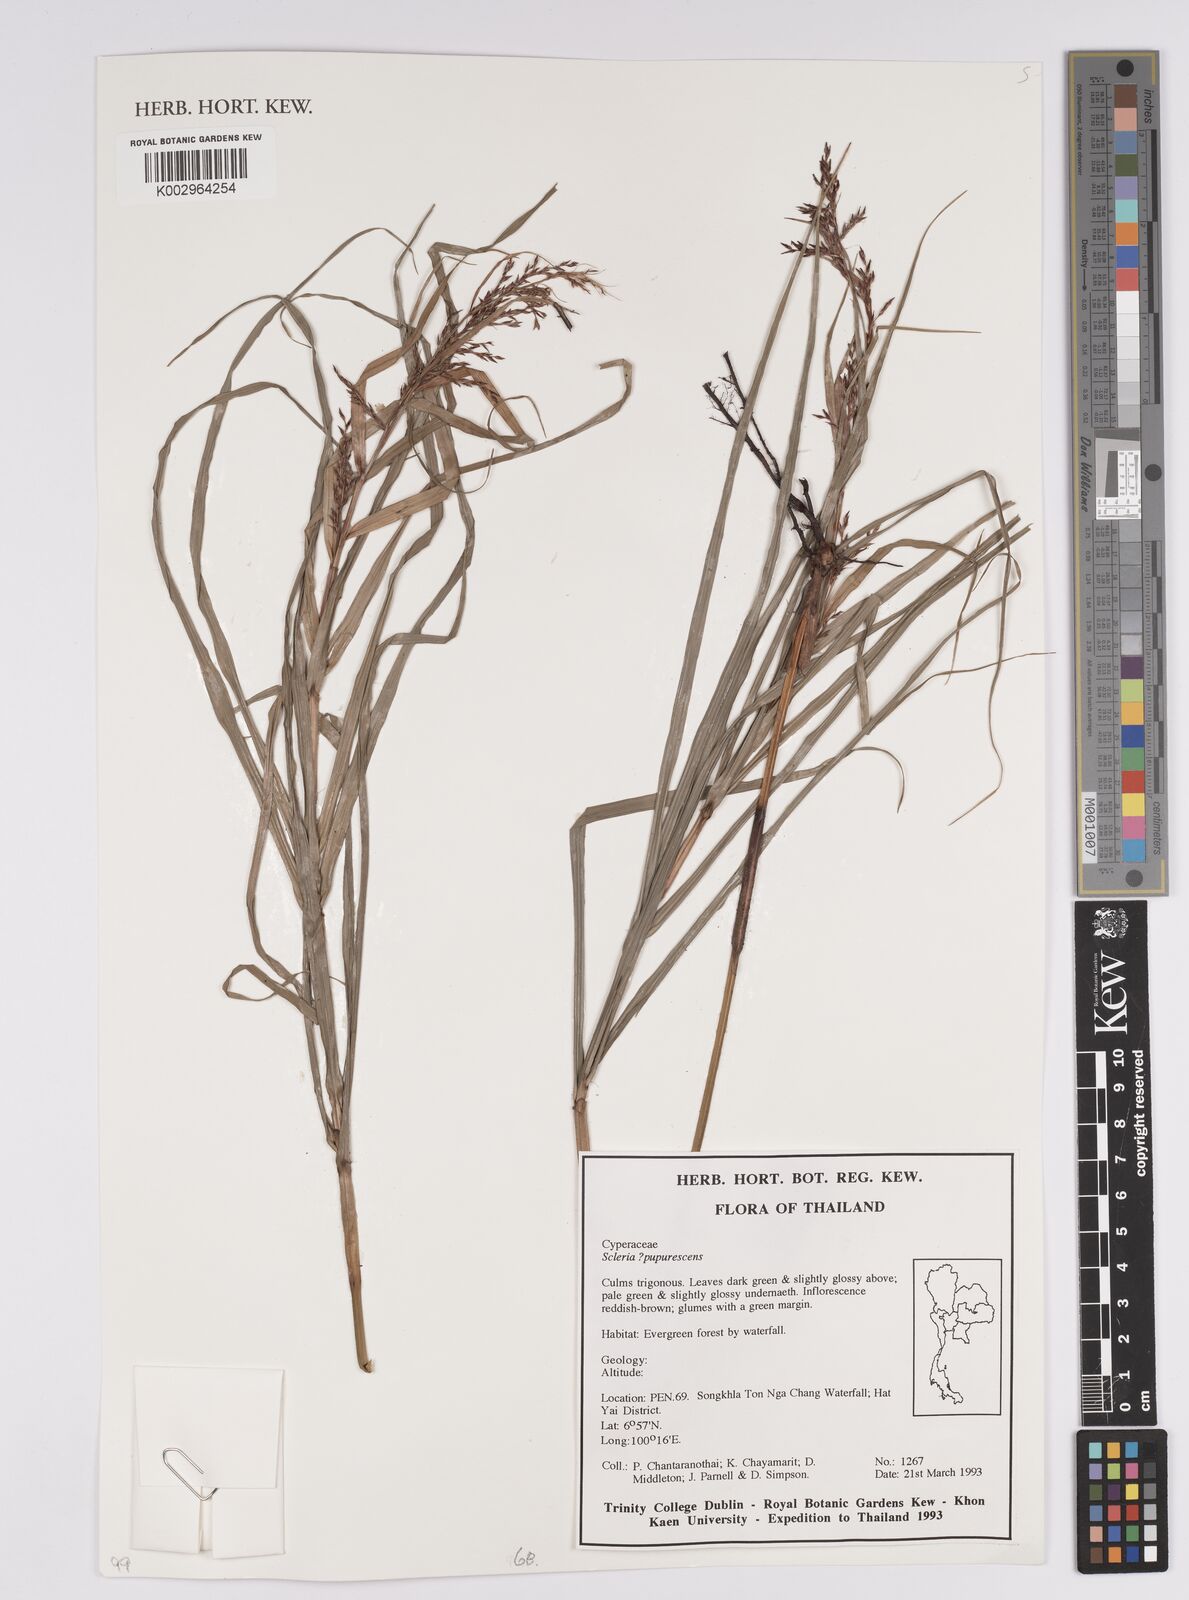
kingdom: Plantae
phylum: Tracheophyta
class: Liliopsida
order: Poales
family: Cyperaceae
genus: Scleria
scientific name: Scleria purpurascens
